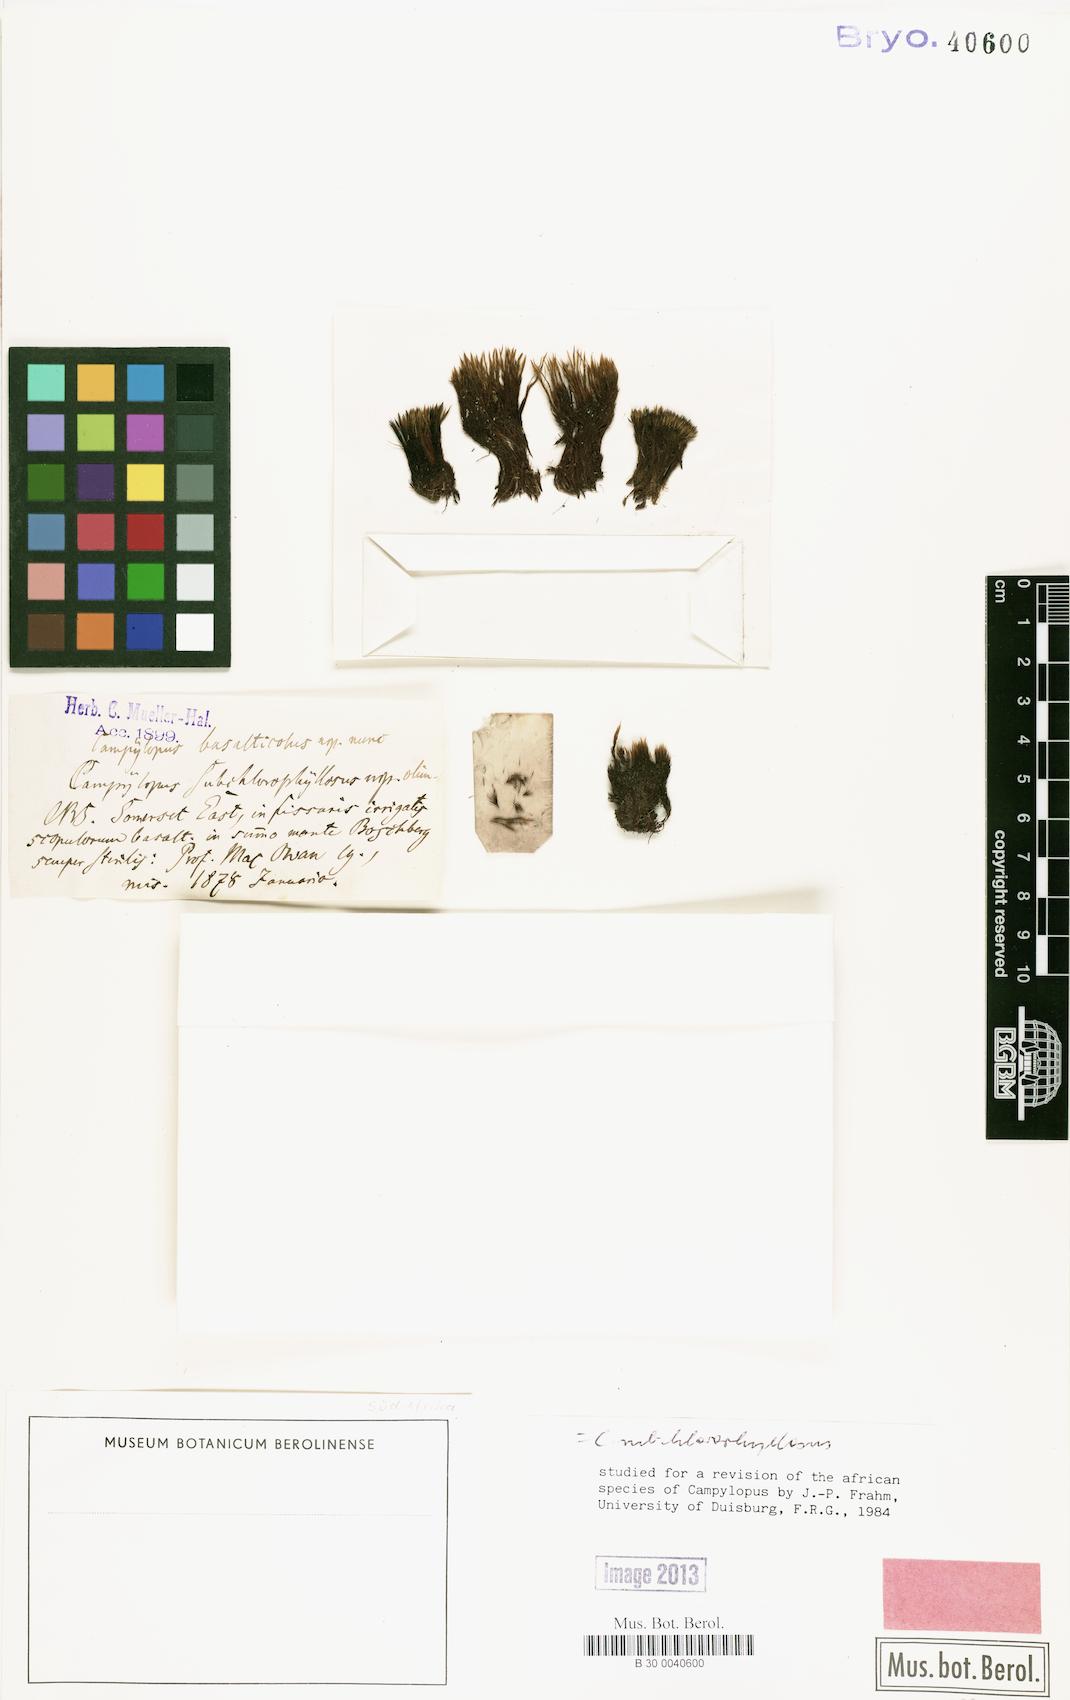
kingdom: Plantae
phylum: Bryophyta
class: Bryopsida
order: Dicranales
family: Leucobryaceae
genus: Sphaerothecium
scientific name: Sphaerothecium subchlorophyllosum
